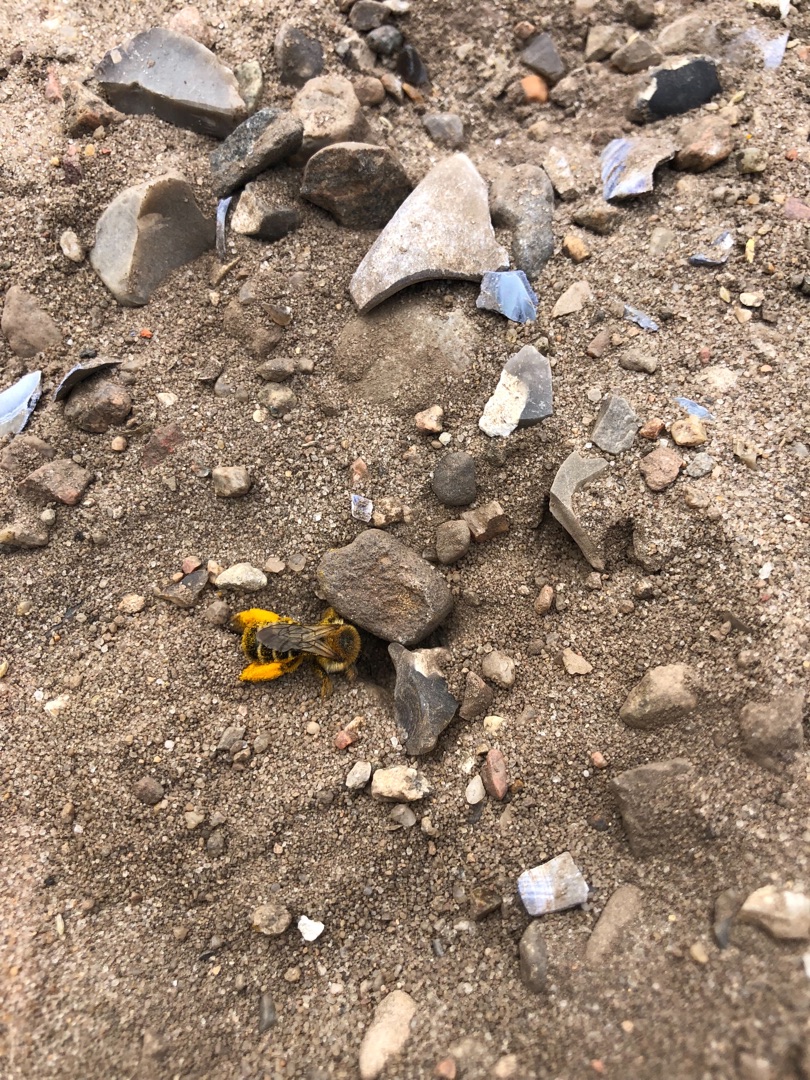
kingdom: Animalia
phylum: Arthropoda
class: Insecta
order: Hymenoptera
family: Melittidae
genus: Dasypoda
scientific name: Dasypoda hirtipes
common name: Pragtbuksebi
